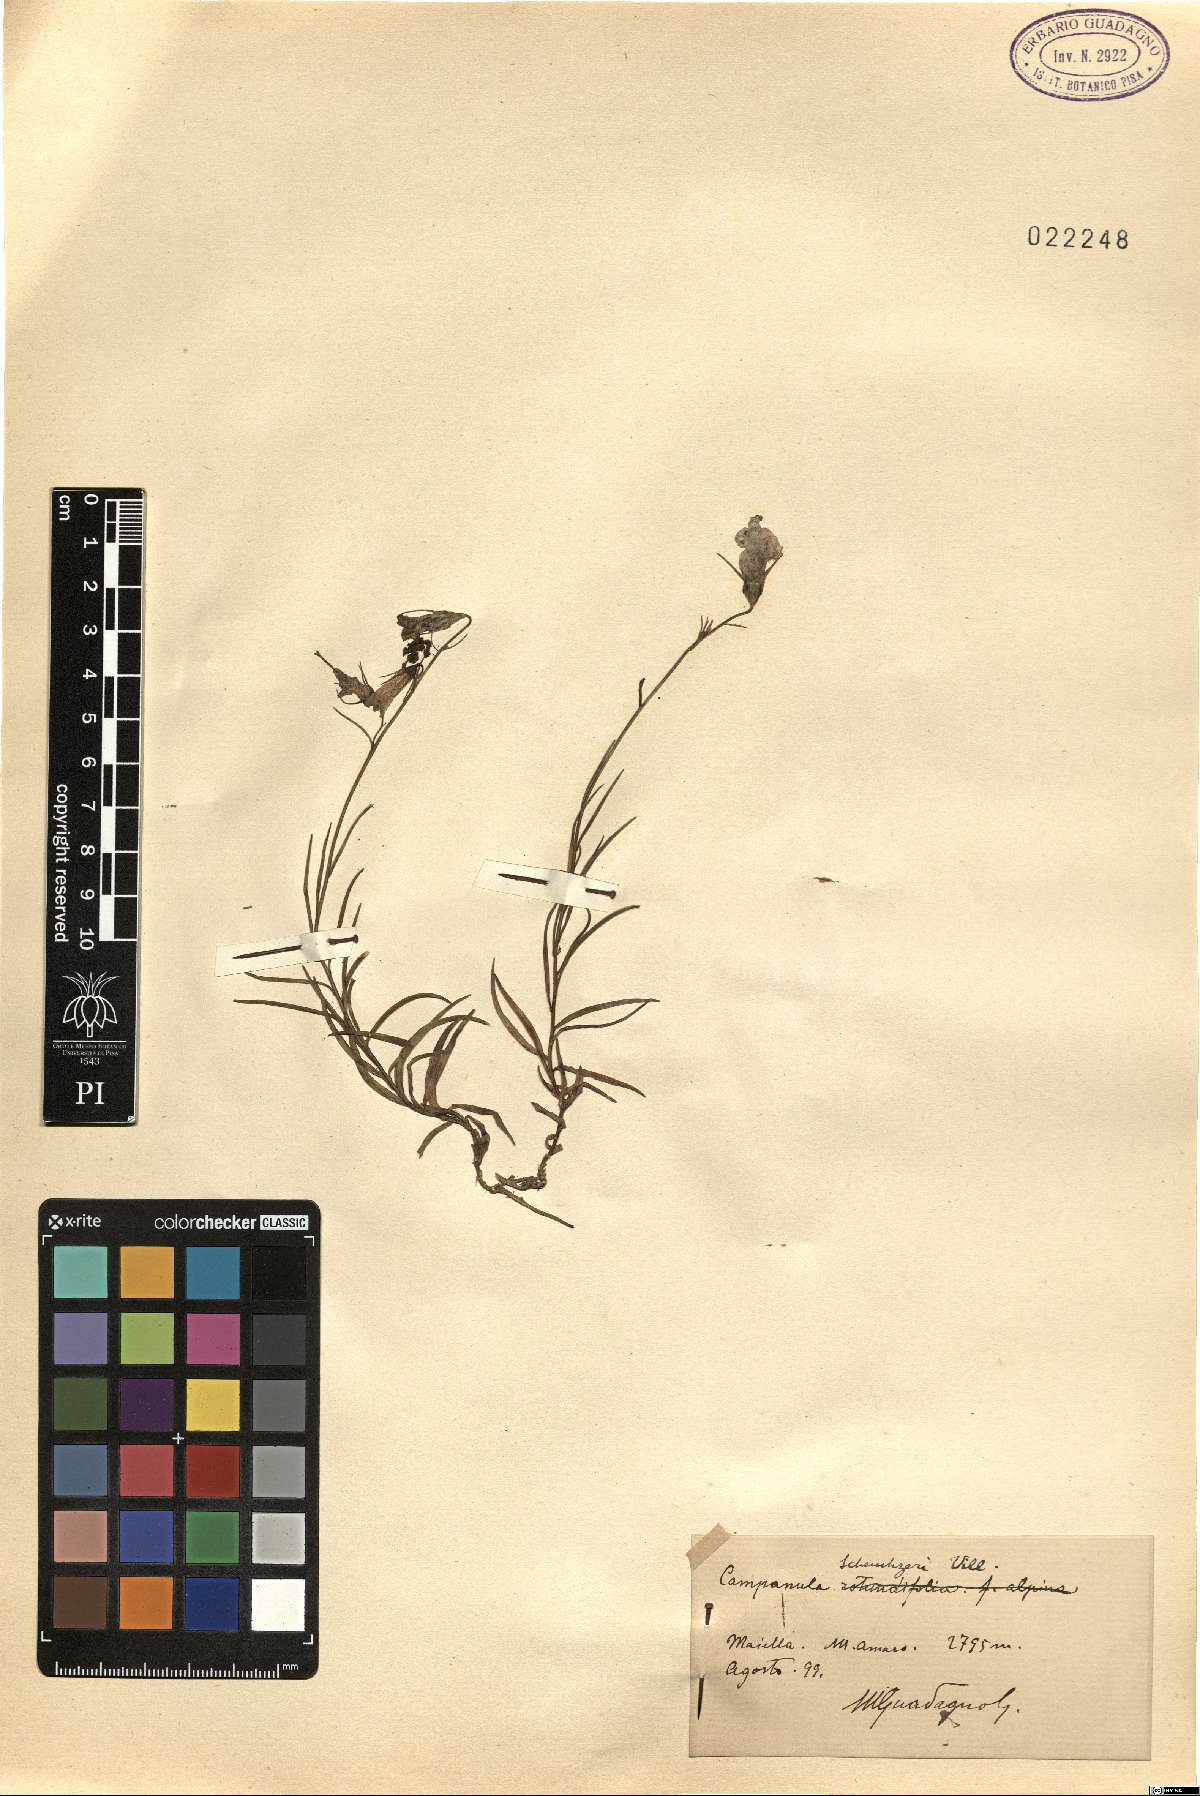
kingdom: Plantae
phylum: Tracheophyta
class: Magnoliopsida
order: Asterales
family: Campanulaceae
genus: Campanula
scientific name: Campanula scheuchzeri
